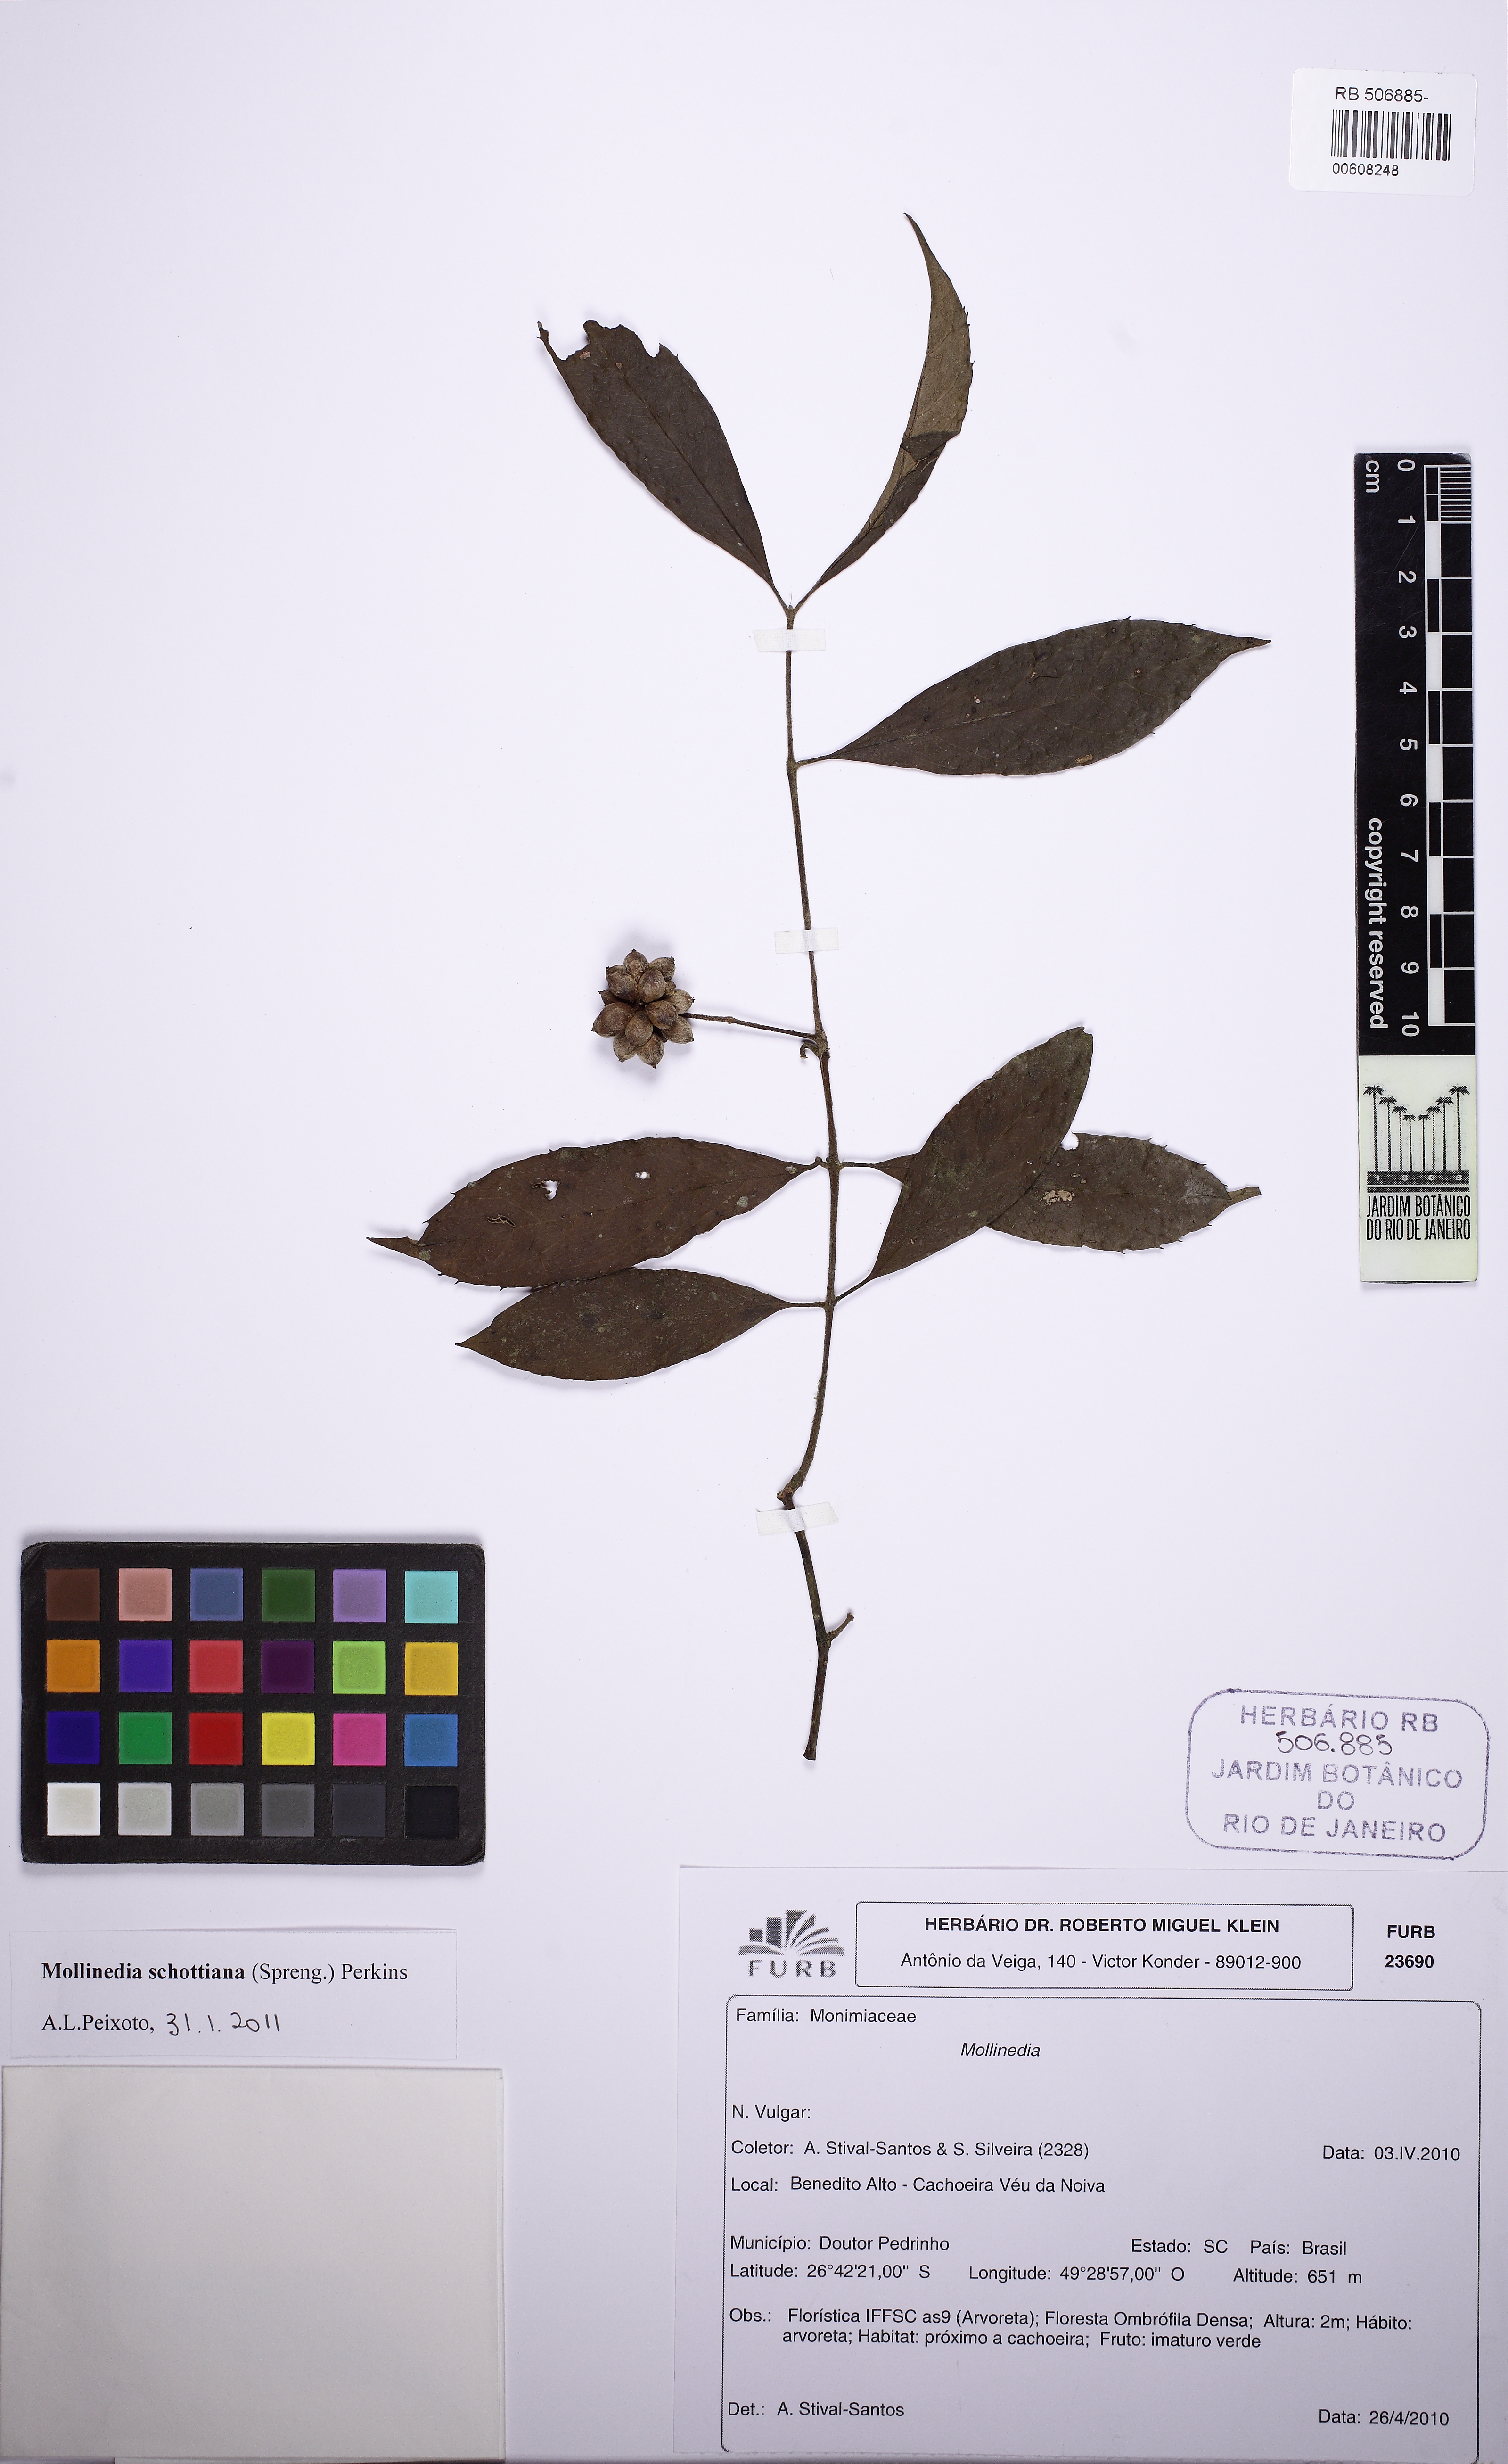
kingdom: Plantae
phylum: Tracheophyta
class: Magnoliopsida
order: Laurales
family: Monimiaceae
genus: Mollinedia
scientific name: Mollinedia umbellata
